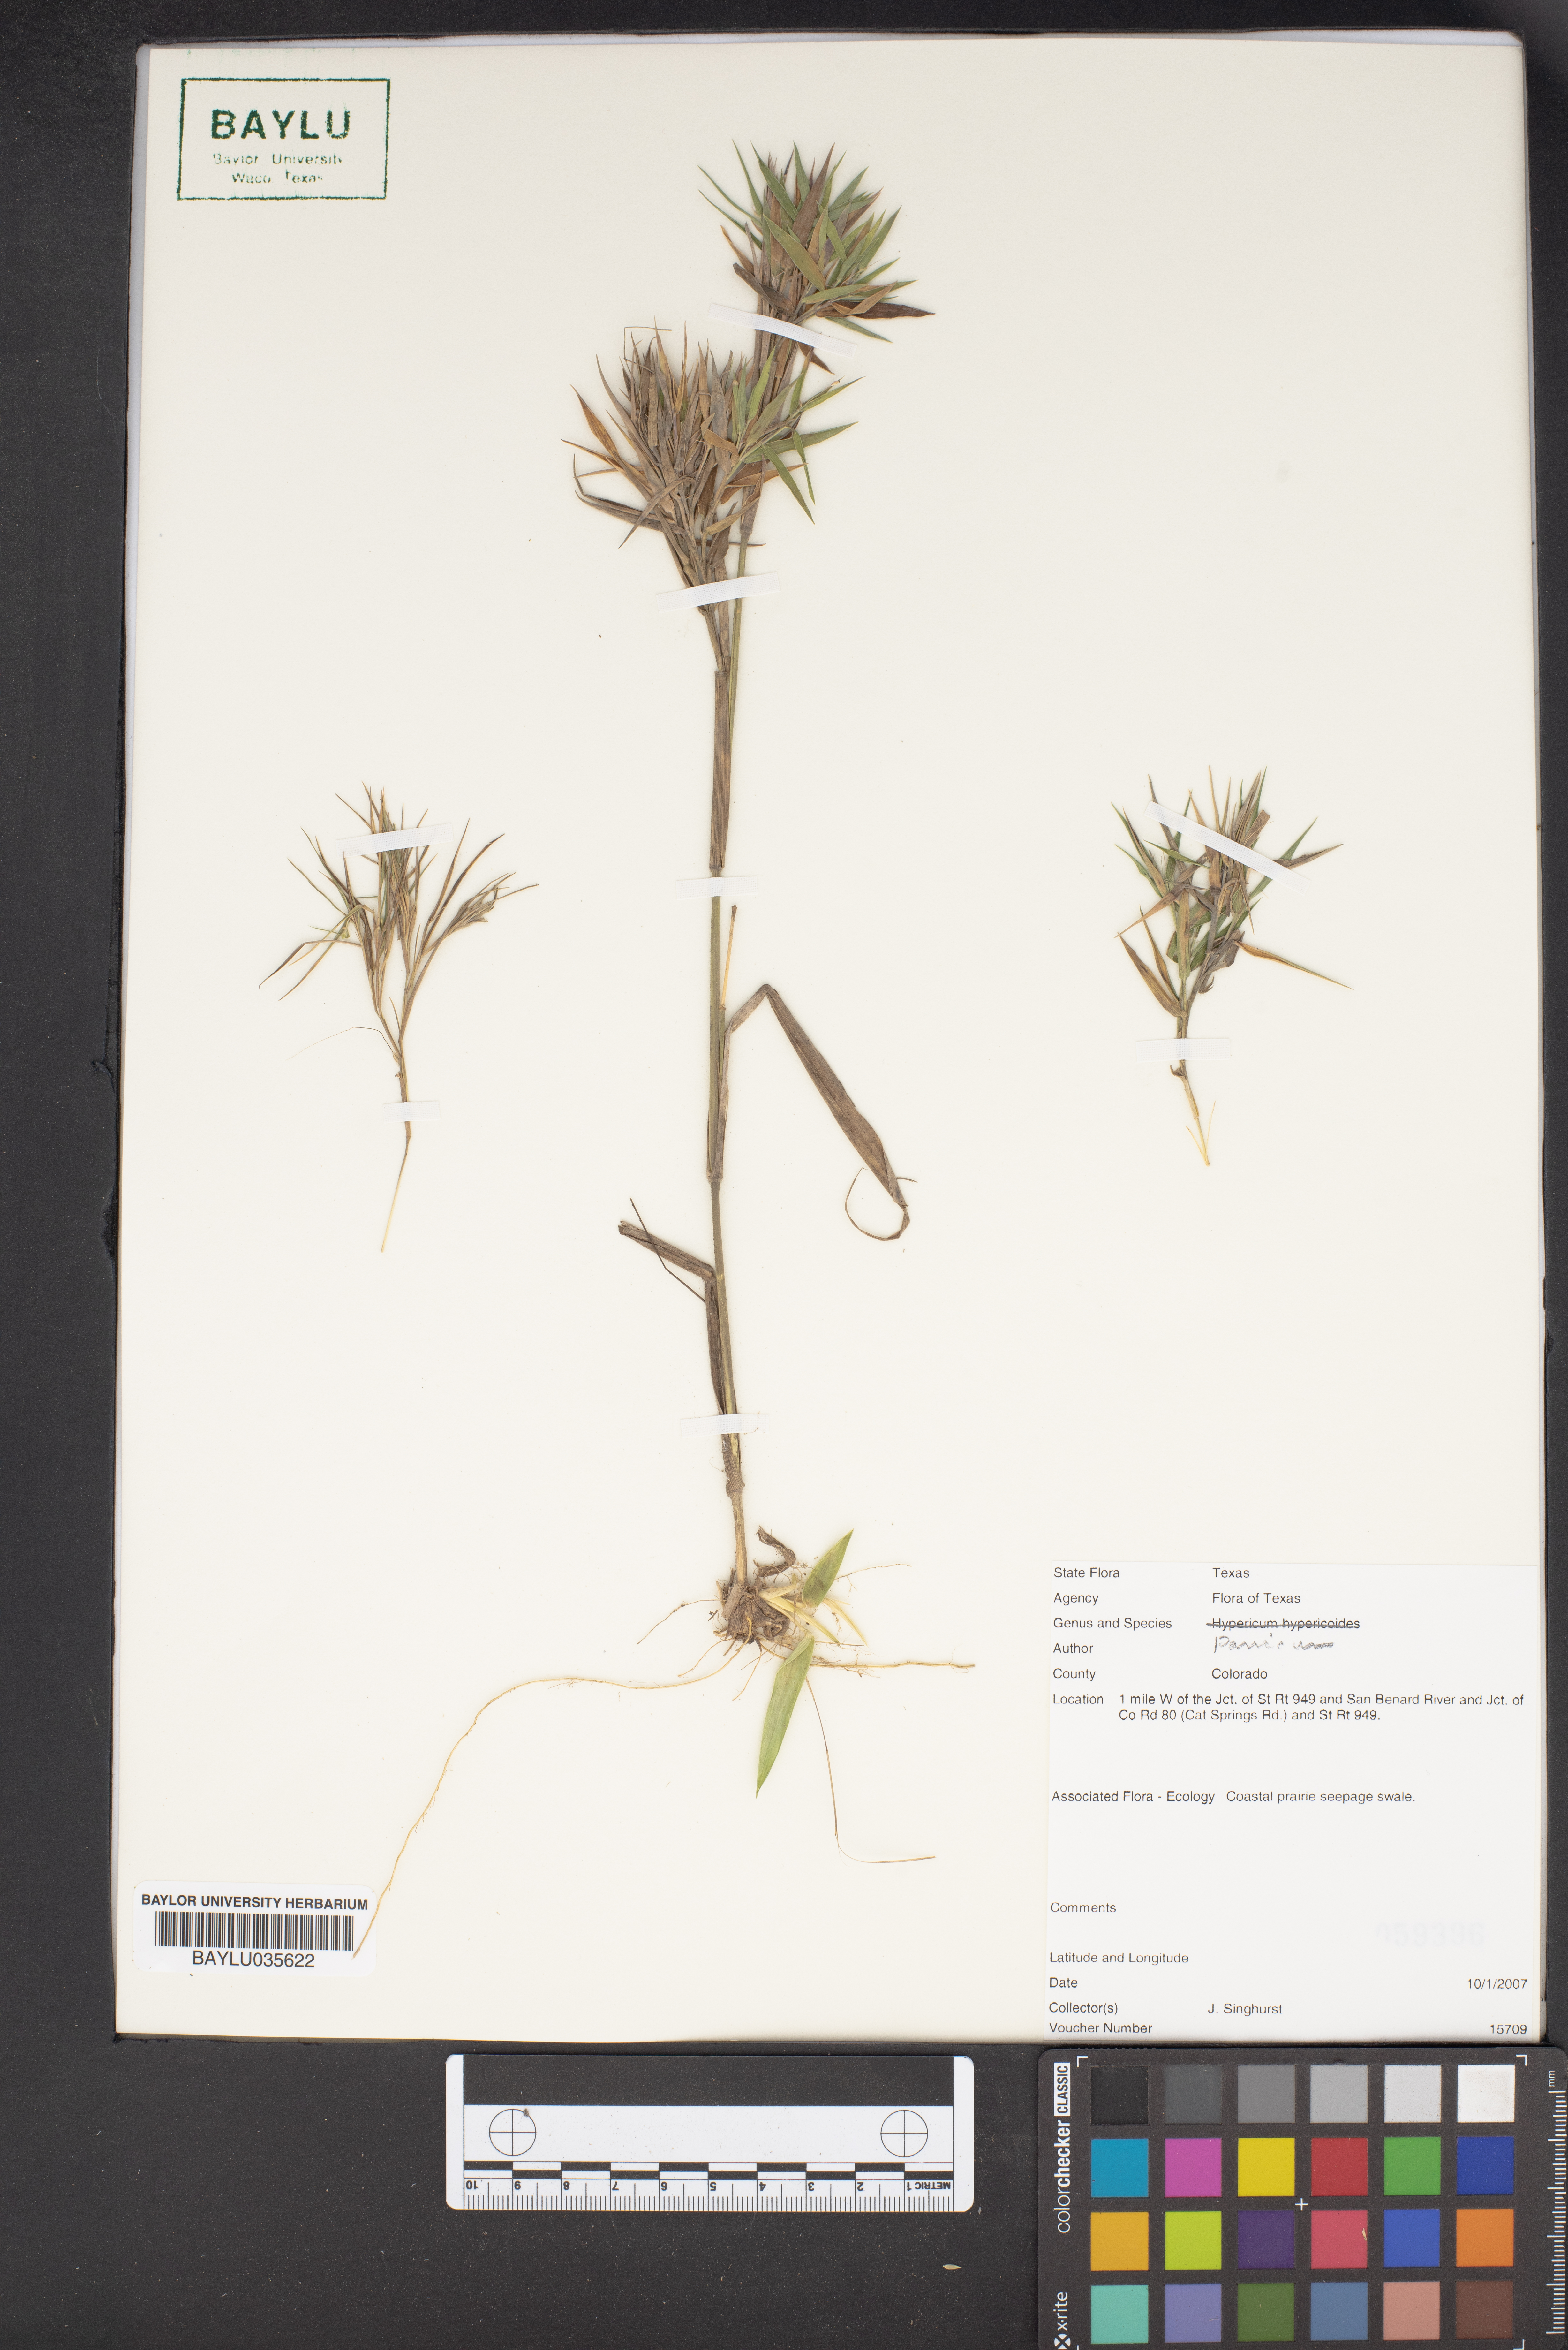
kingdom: Plantae
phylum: Tracheophyta
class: Liliopsida
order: Poales
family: Poaceae
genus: Panicum
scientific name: Panicum
